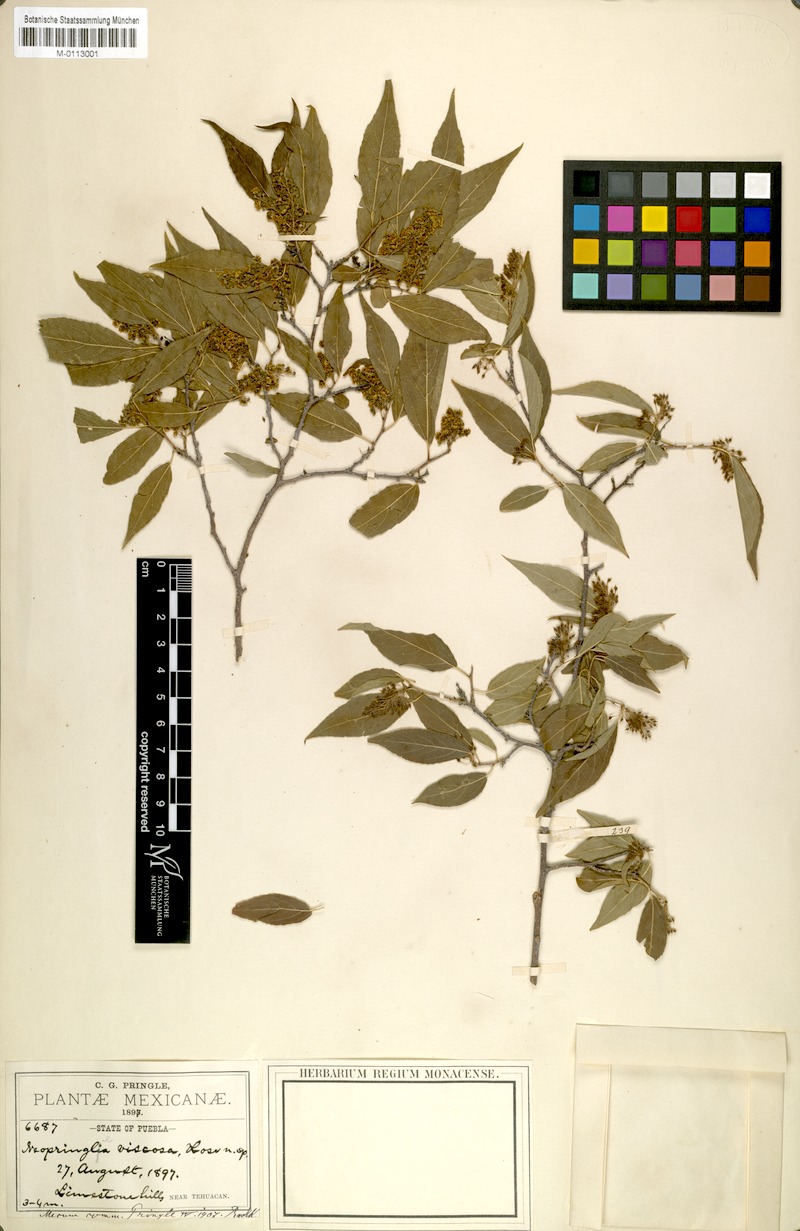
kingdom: Plantae
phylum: Tracheophyta
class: Magnoliopsida
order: Malpighiales
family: Salicaceae
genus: Neopringlea
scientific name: Neopringlea viscosa
